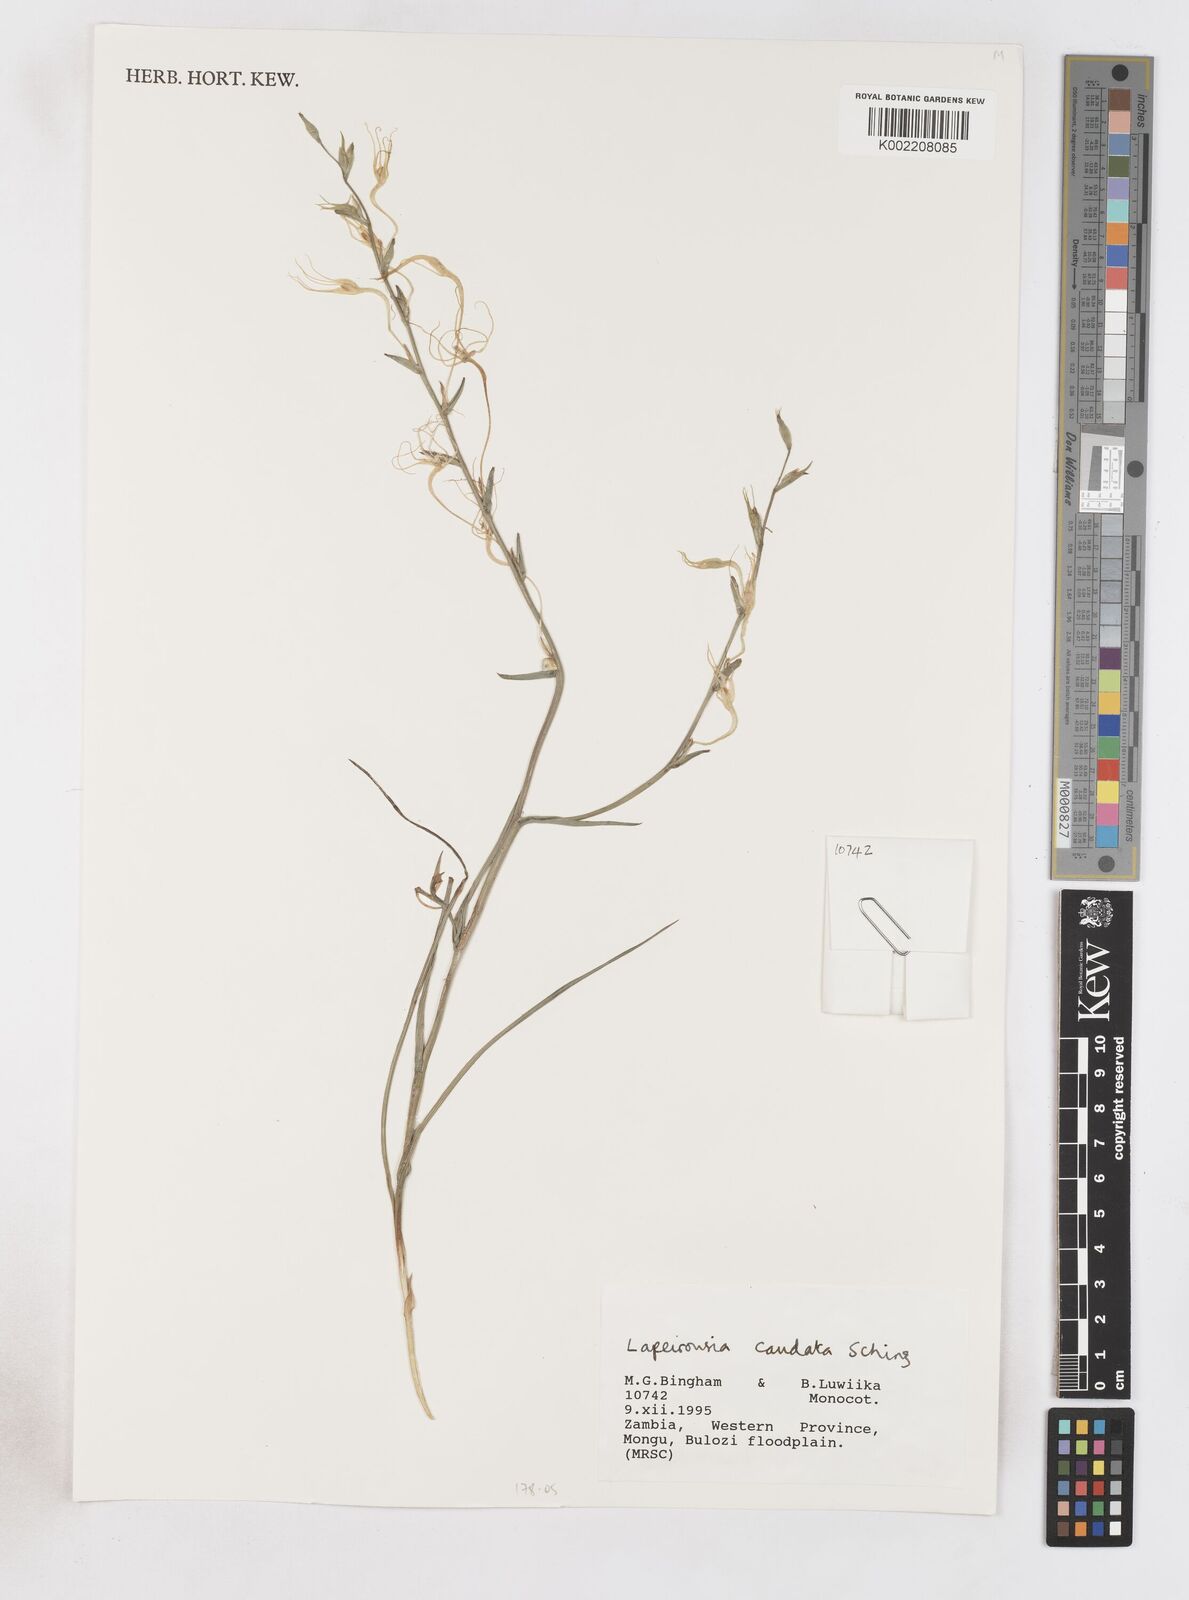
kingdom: Plantae
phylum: Tracheophyta
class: Liliopsida
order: Asparagales
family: Iridaceae
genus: Lapeirousia
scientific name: Lapeirousia caudata
